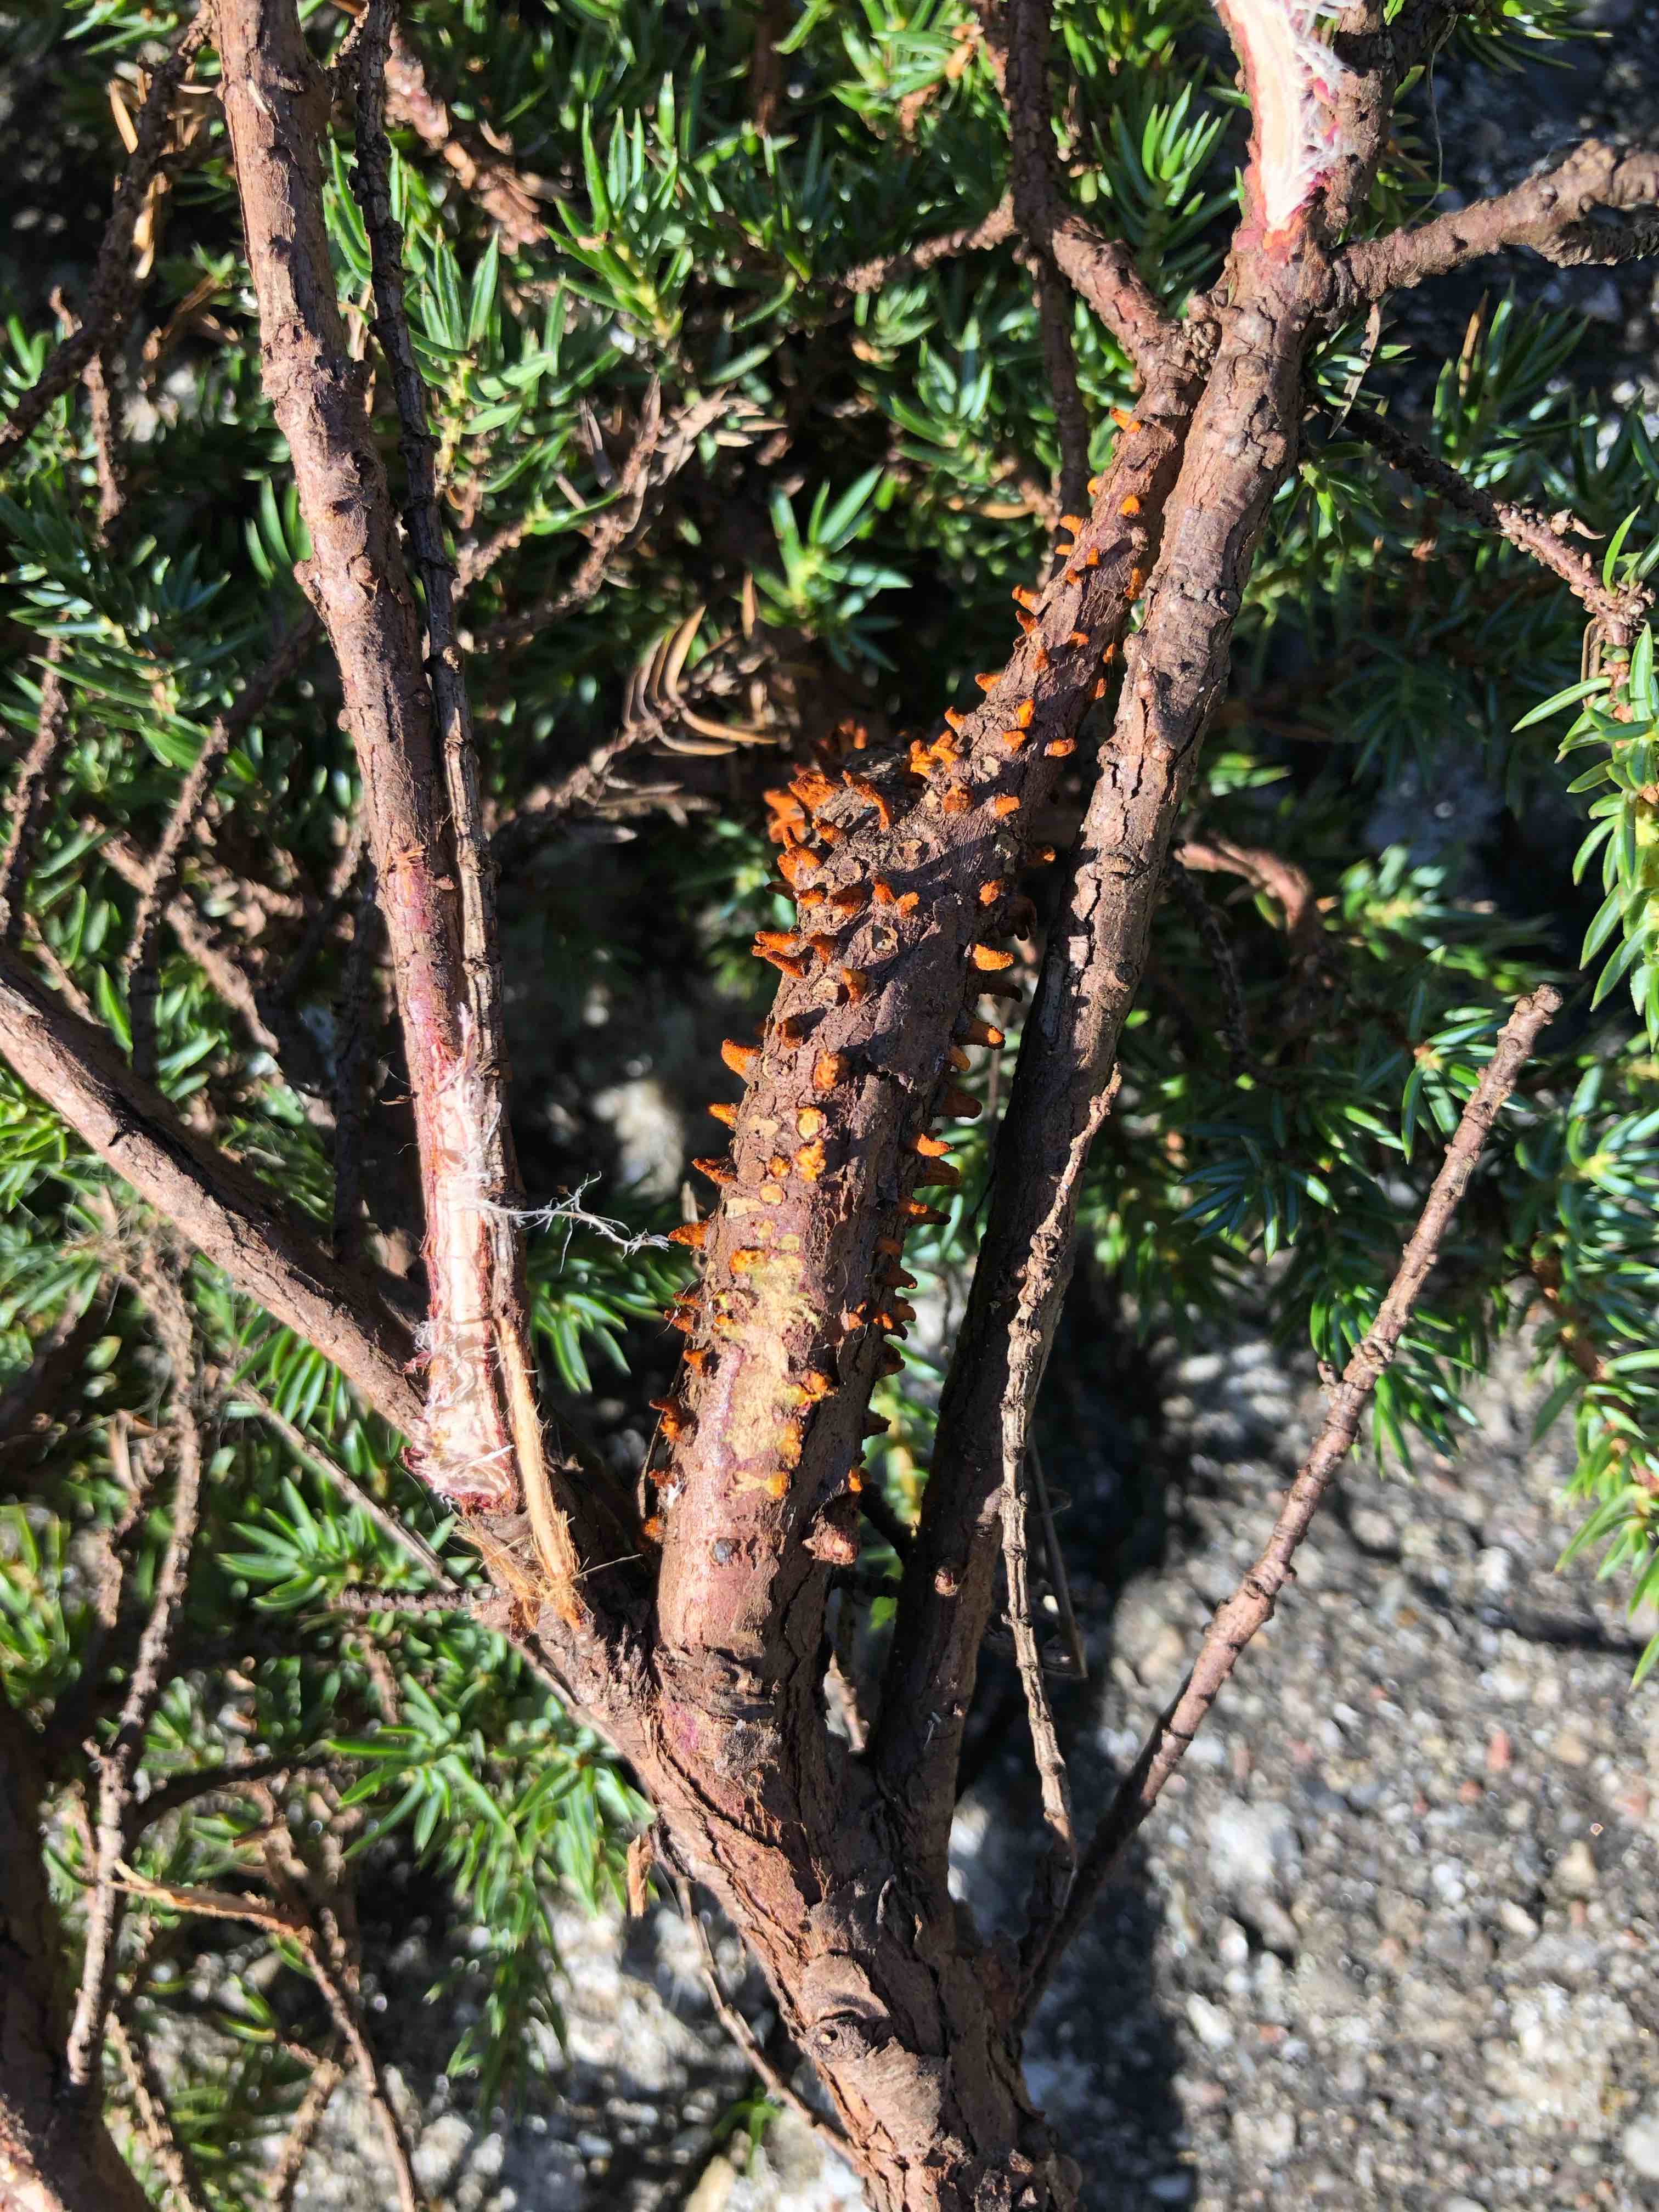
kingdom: Fungi
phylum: Basidiomycota
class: Pucciniomycetes
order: Pucciniales
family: Gymnosporangiaceae
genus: Gymnosporangium
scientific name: Gymnosporangium clavariiforme
